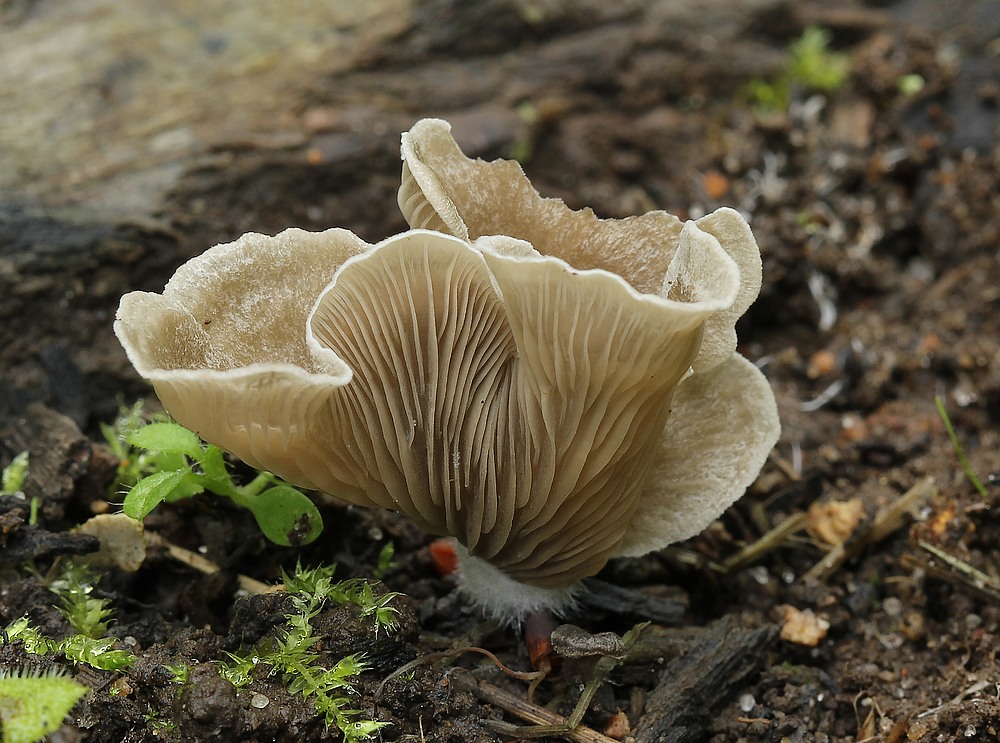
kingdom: Fungi
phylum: Basidiomycota
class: Agaricomycetes
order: Agaricales
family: Hygrophoraceae
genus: Arrhenia
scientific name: Arrhenia acerosa
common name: muslinge-fontænehat
